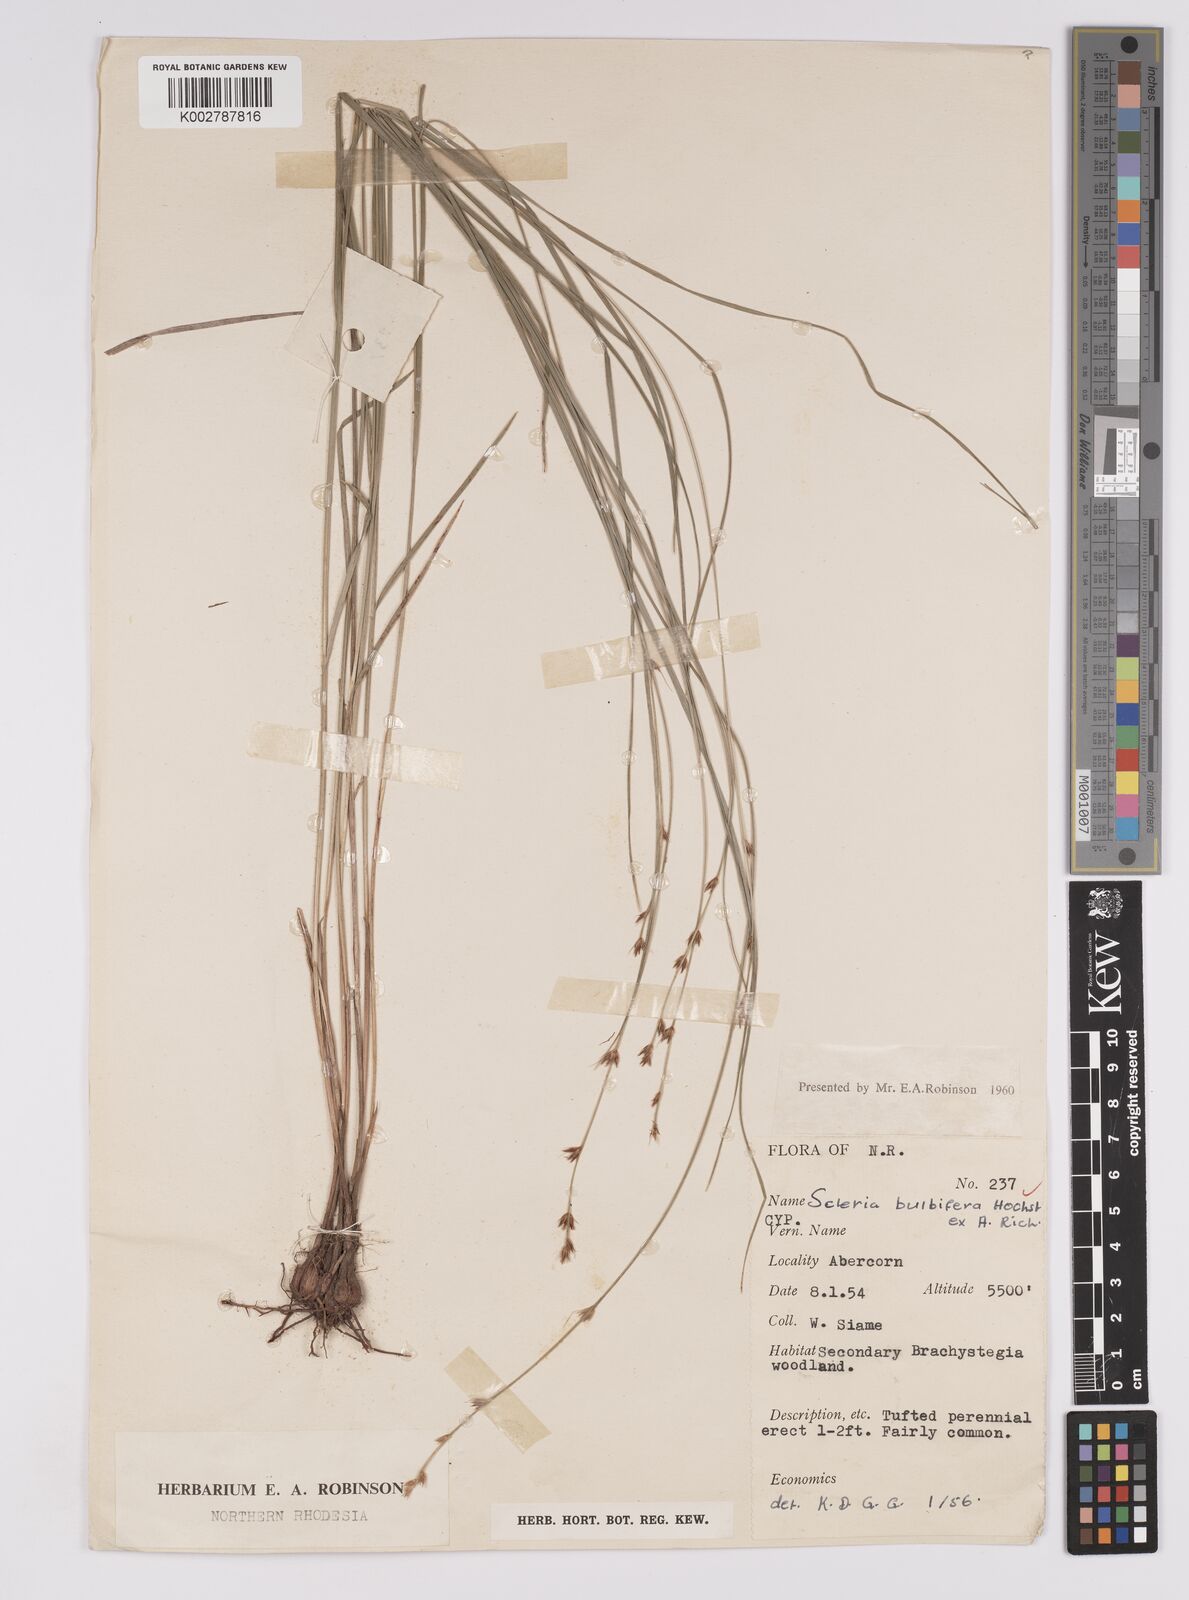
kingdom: Plantae
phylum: Tracheophyta
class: Liliopsida
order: Poales
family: Cyperaceae
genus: Scleria
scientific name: Scleria bulbifera
